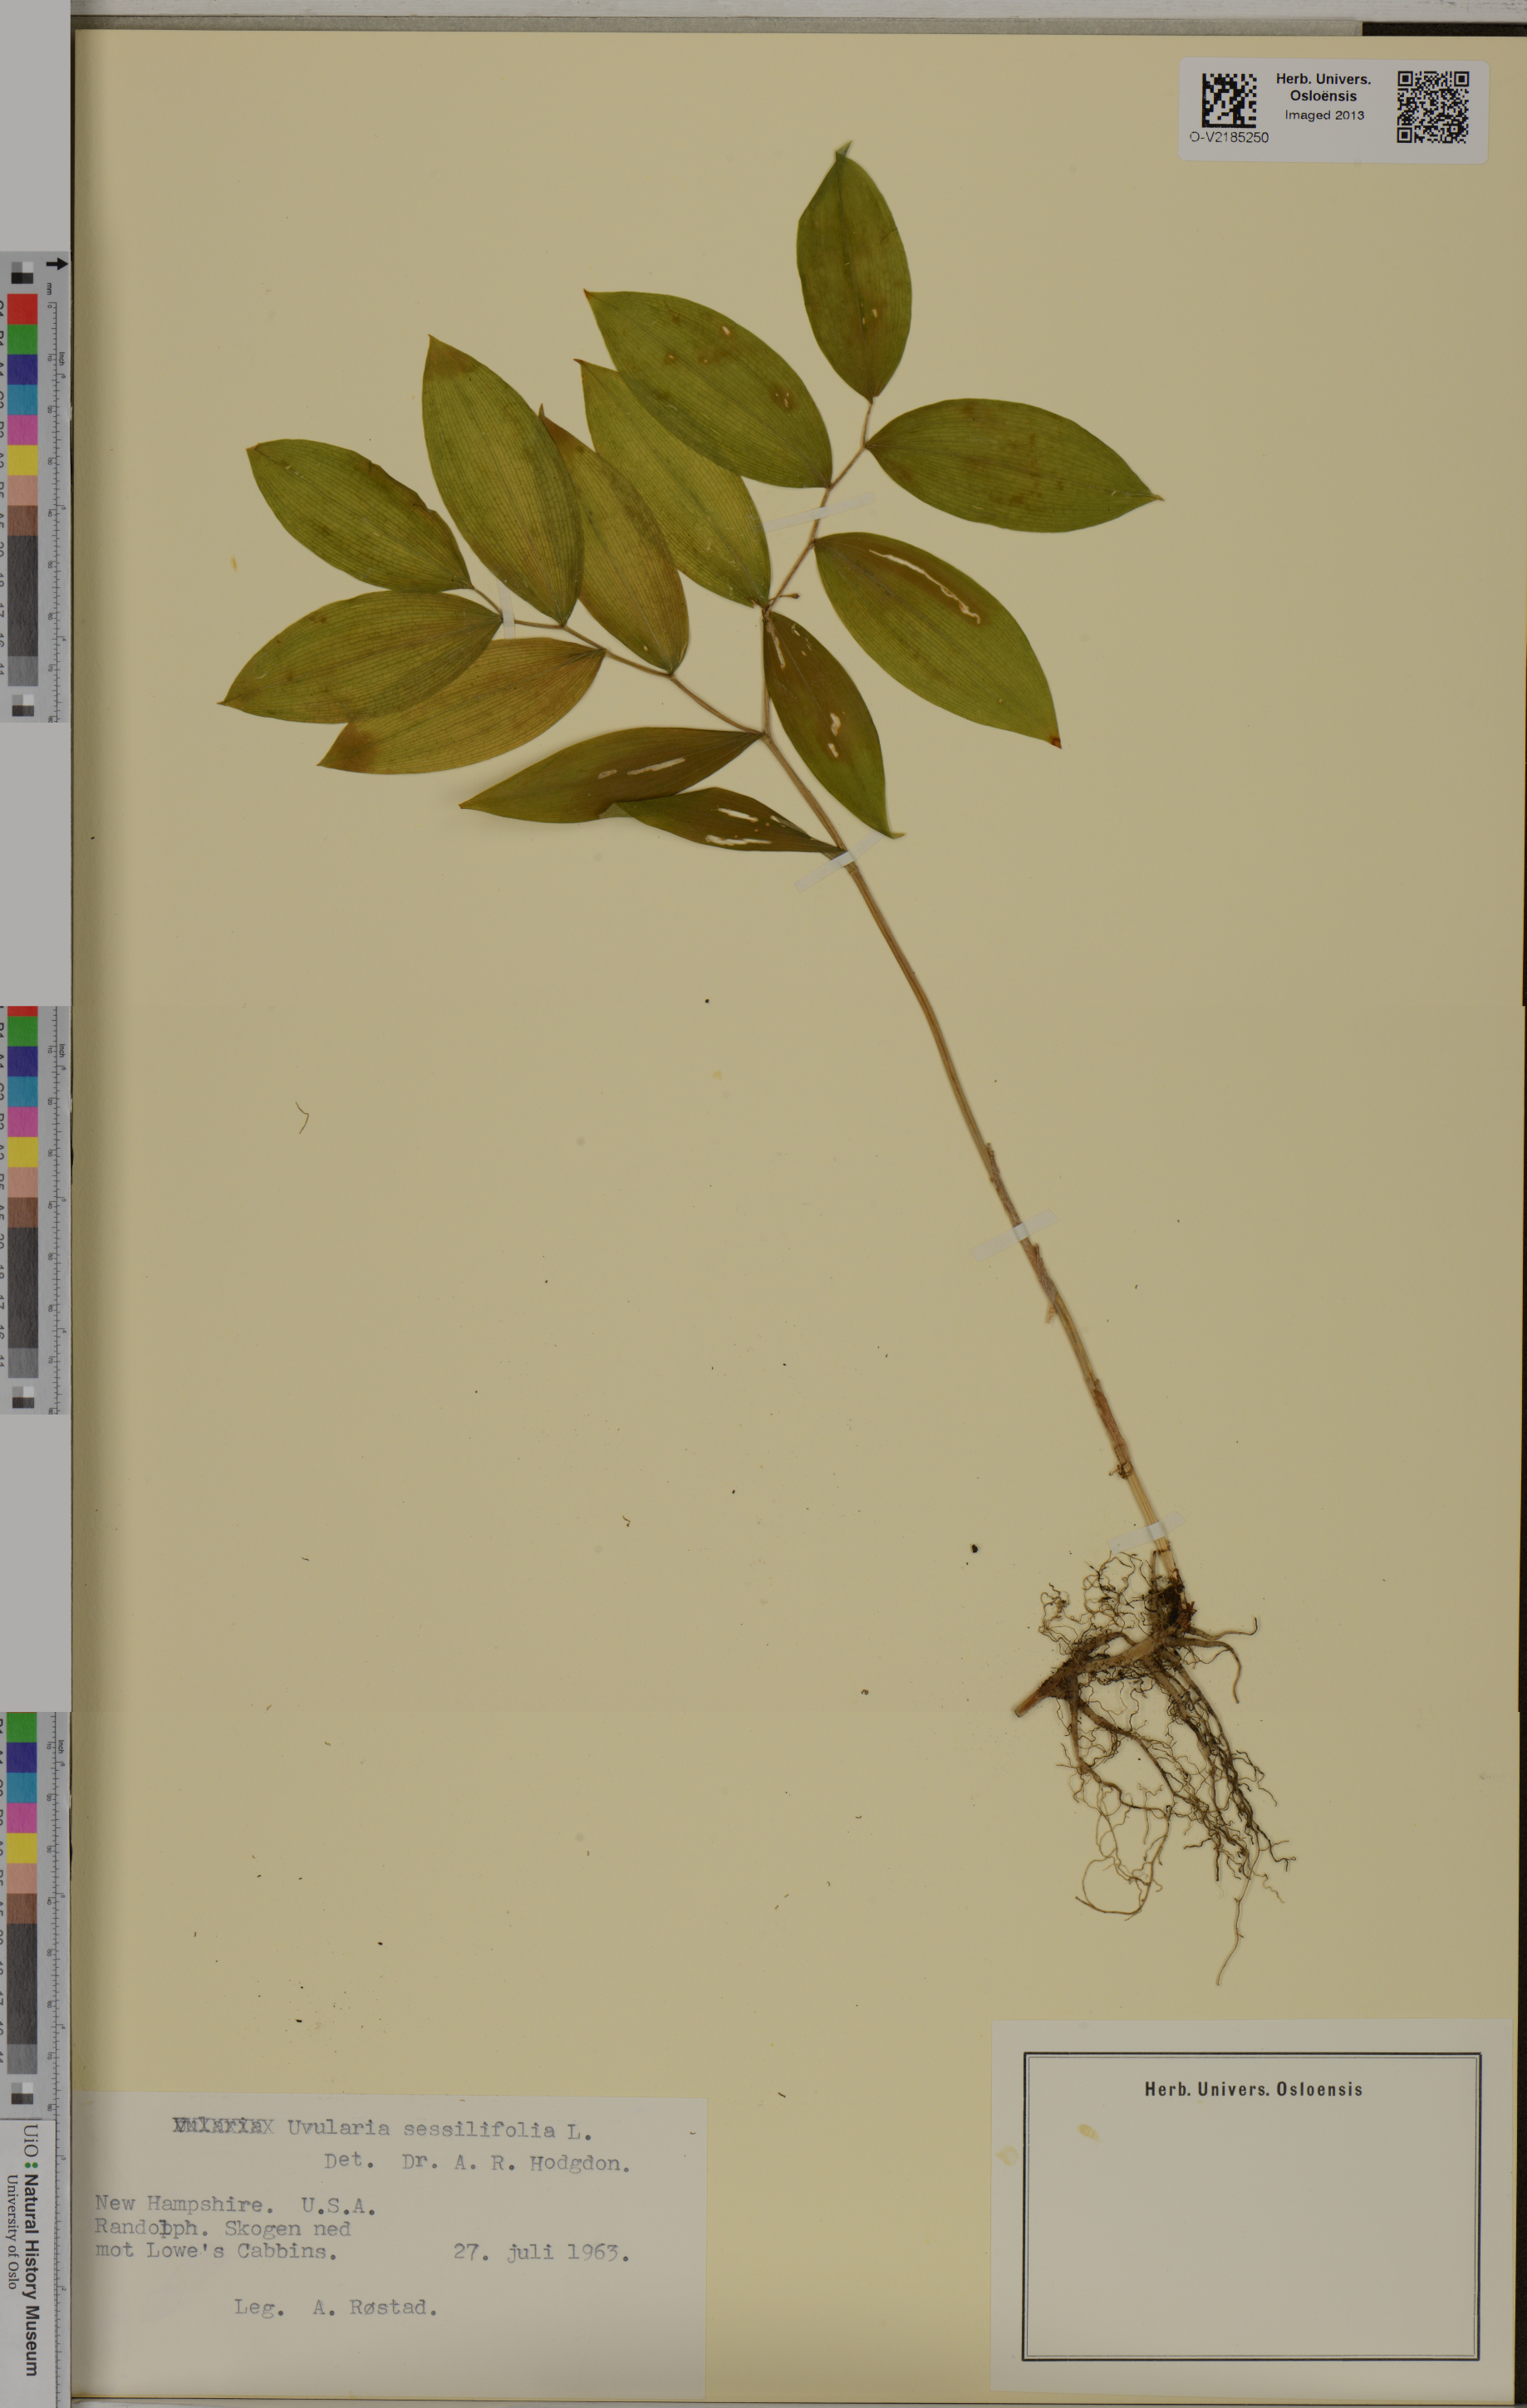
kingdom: Plantae
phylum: Tracheophyta
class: Liliopsida
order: Liliales
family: Colchicaceae
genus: Uvularia
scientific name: Uvularia sessilifolia
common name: Straw-lily
